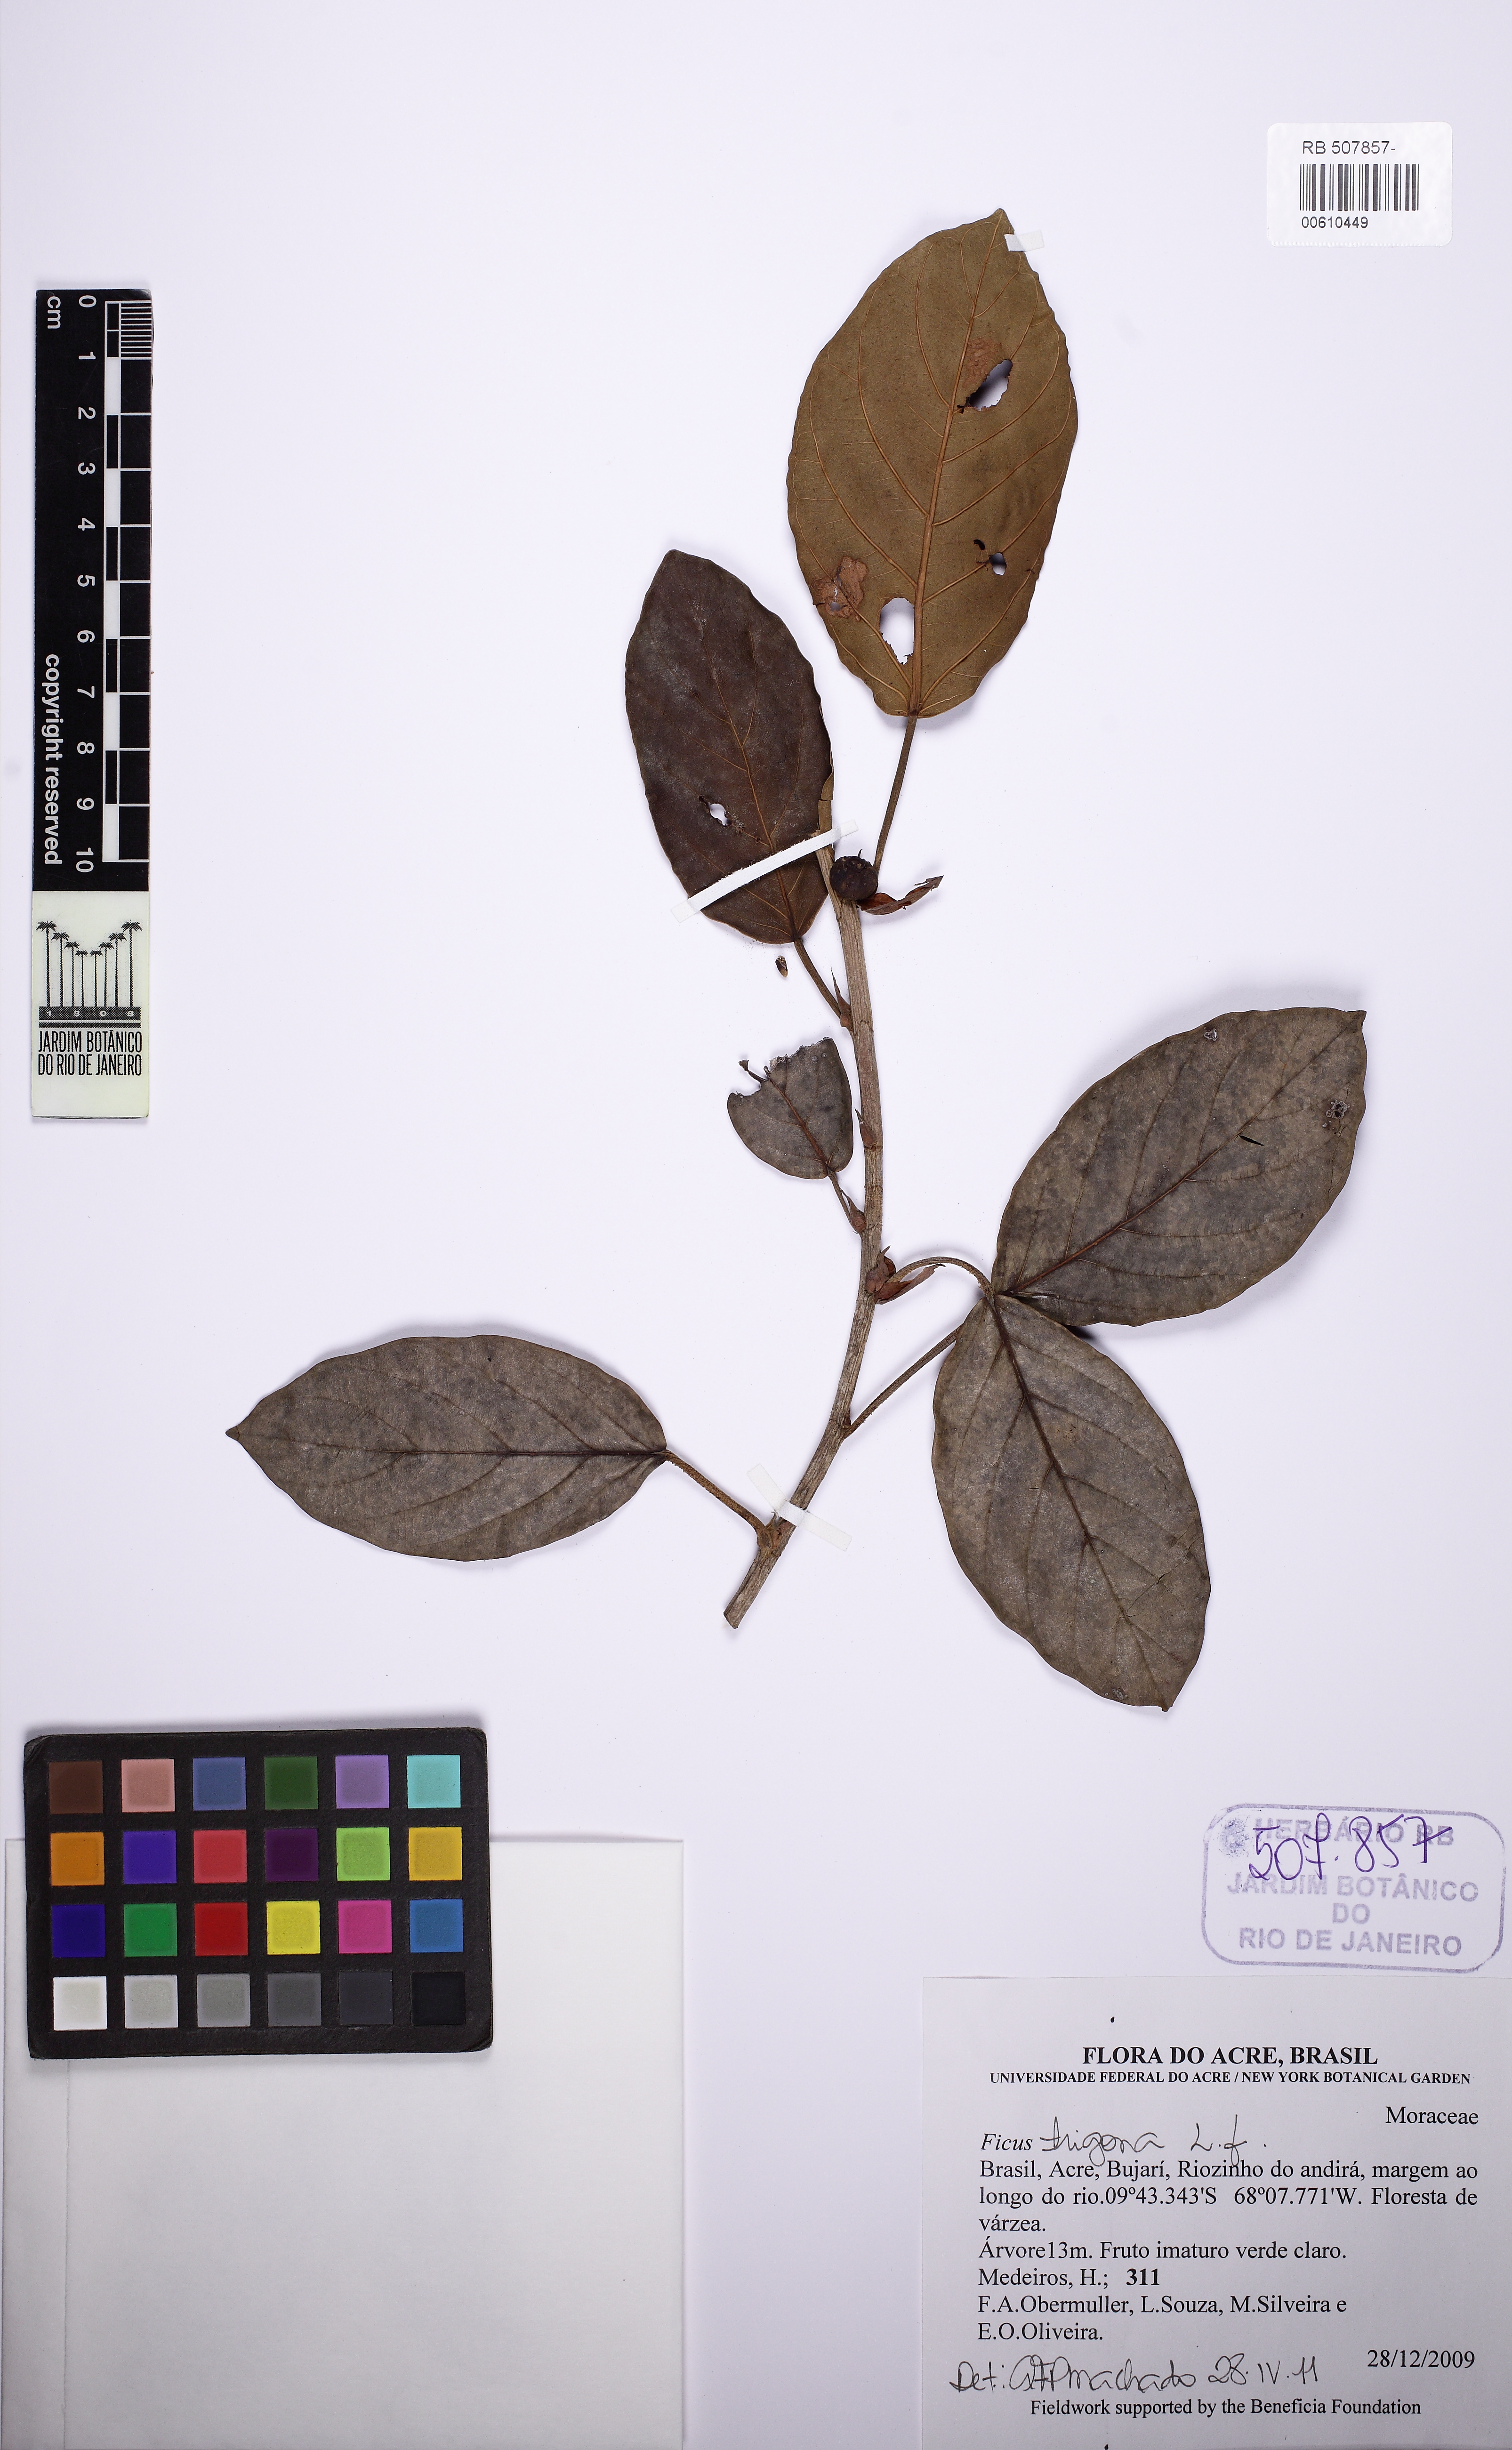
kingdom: Plantae
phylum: Tracheophyta
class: Magnoliopsida
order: Rosales
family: Moraceae
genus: Ficus
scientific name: Ficus trigona
